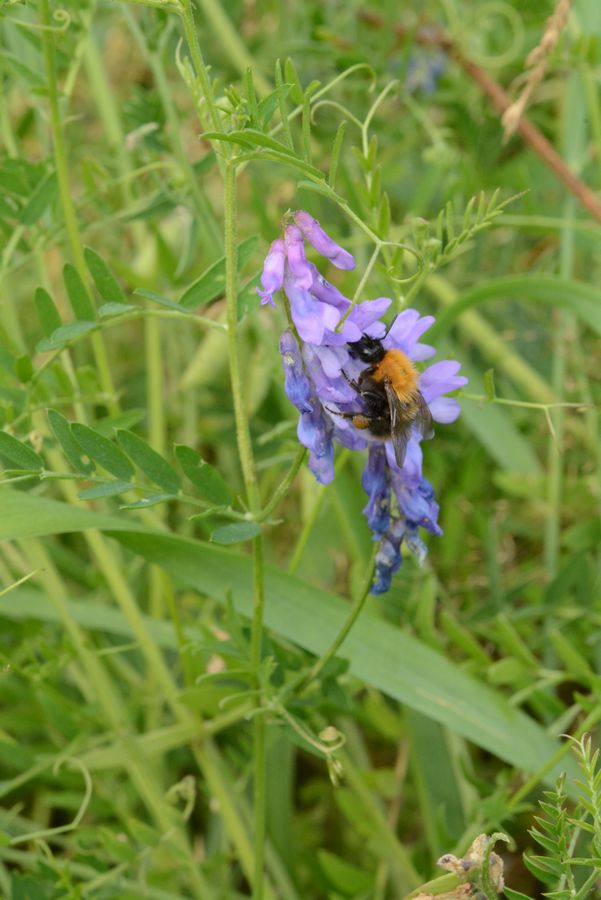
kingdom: Plantae
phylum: Tracheophyta
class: Magnoliopsida
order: Fabales
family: Fabaceae
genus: Vicia
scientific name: Vicia cracca
